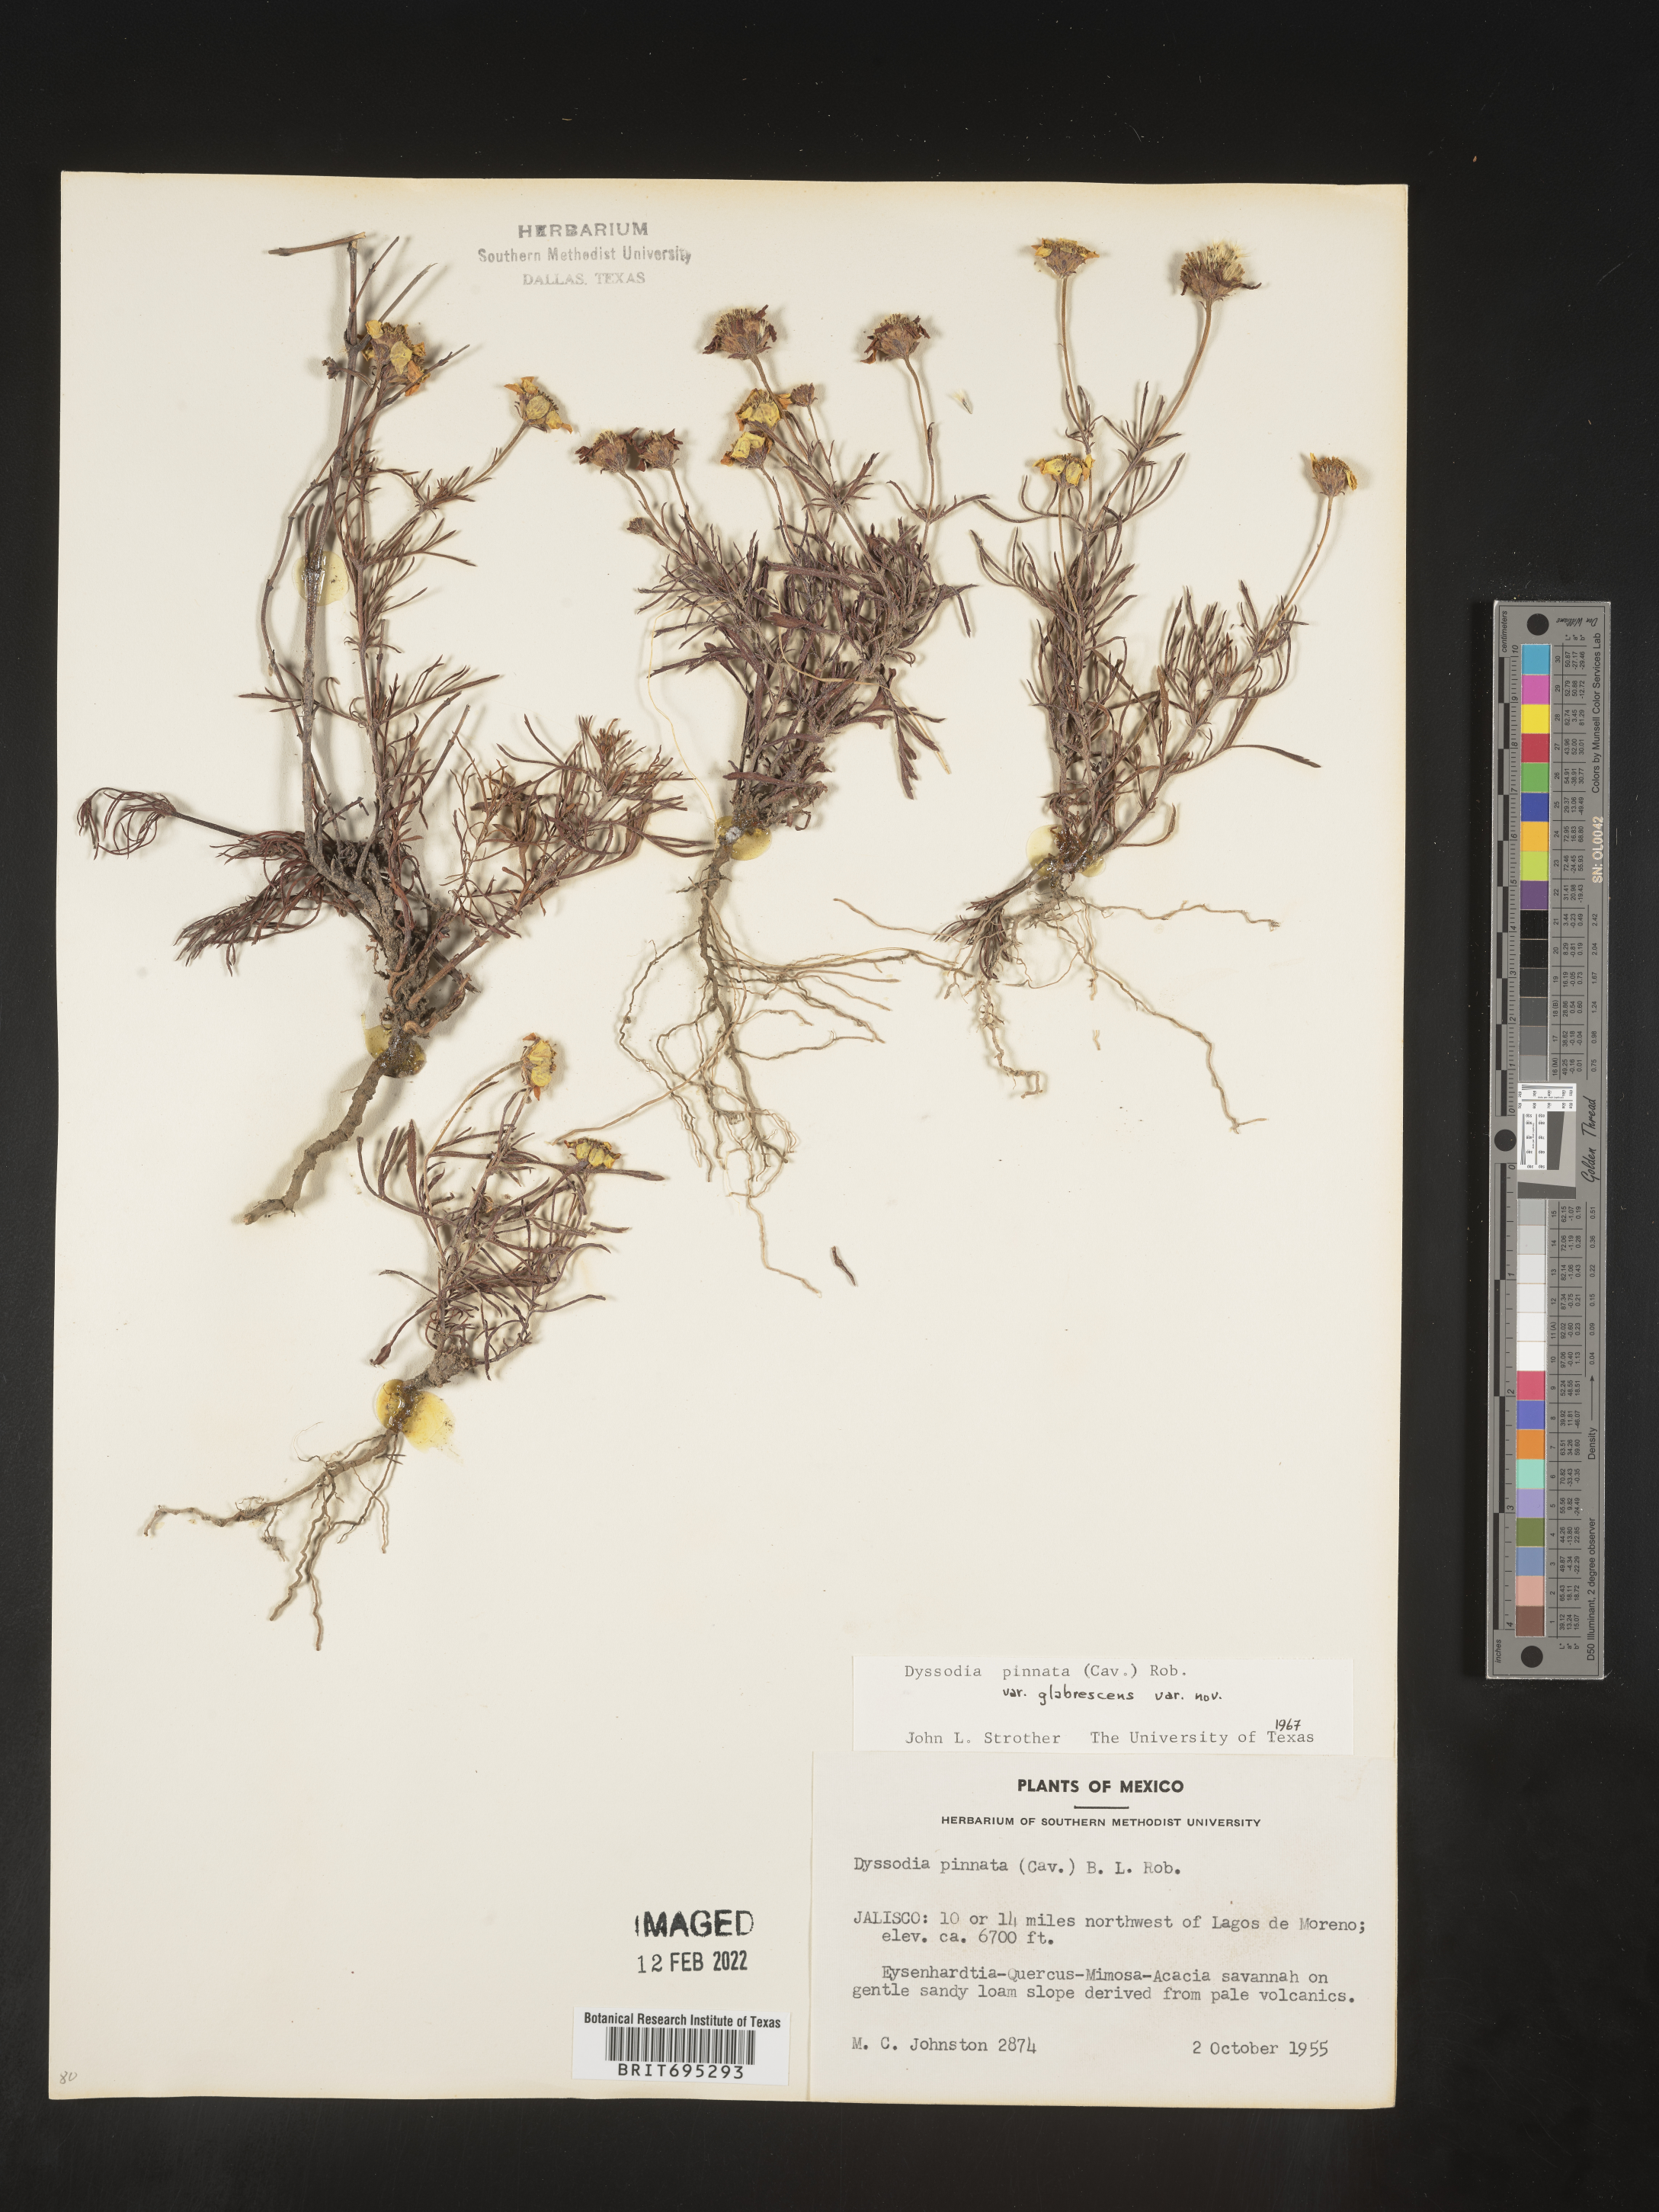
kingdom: Plantae
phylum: Tracheophyta
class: Magnoliopsida
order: Asterales
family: Asteraceae
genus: Dyssodia
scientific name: Dyssodia
